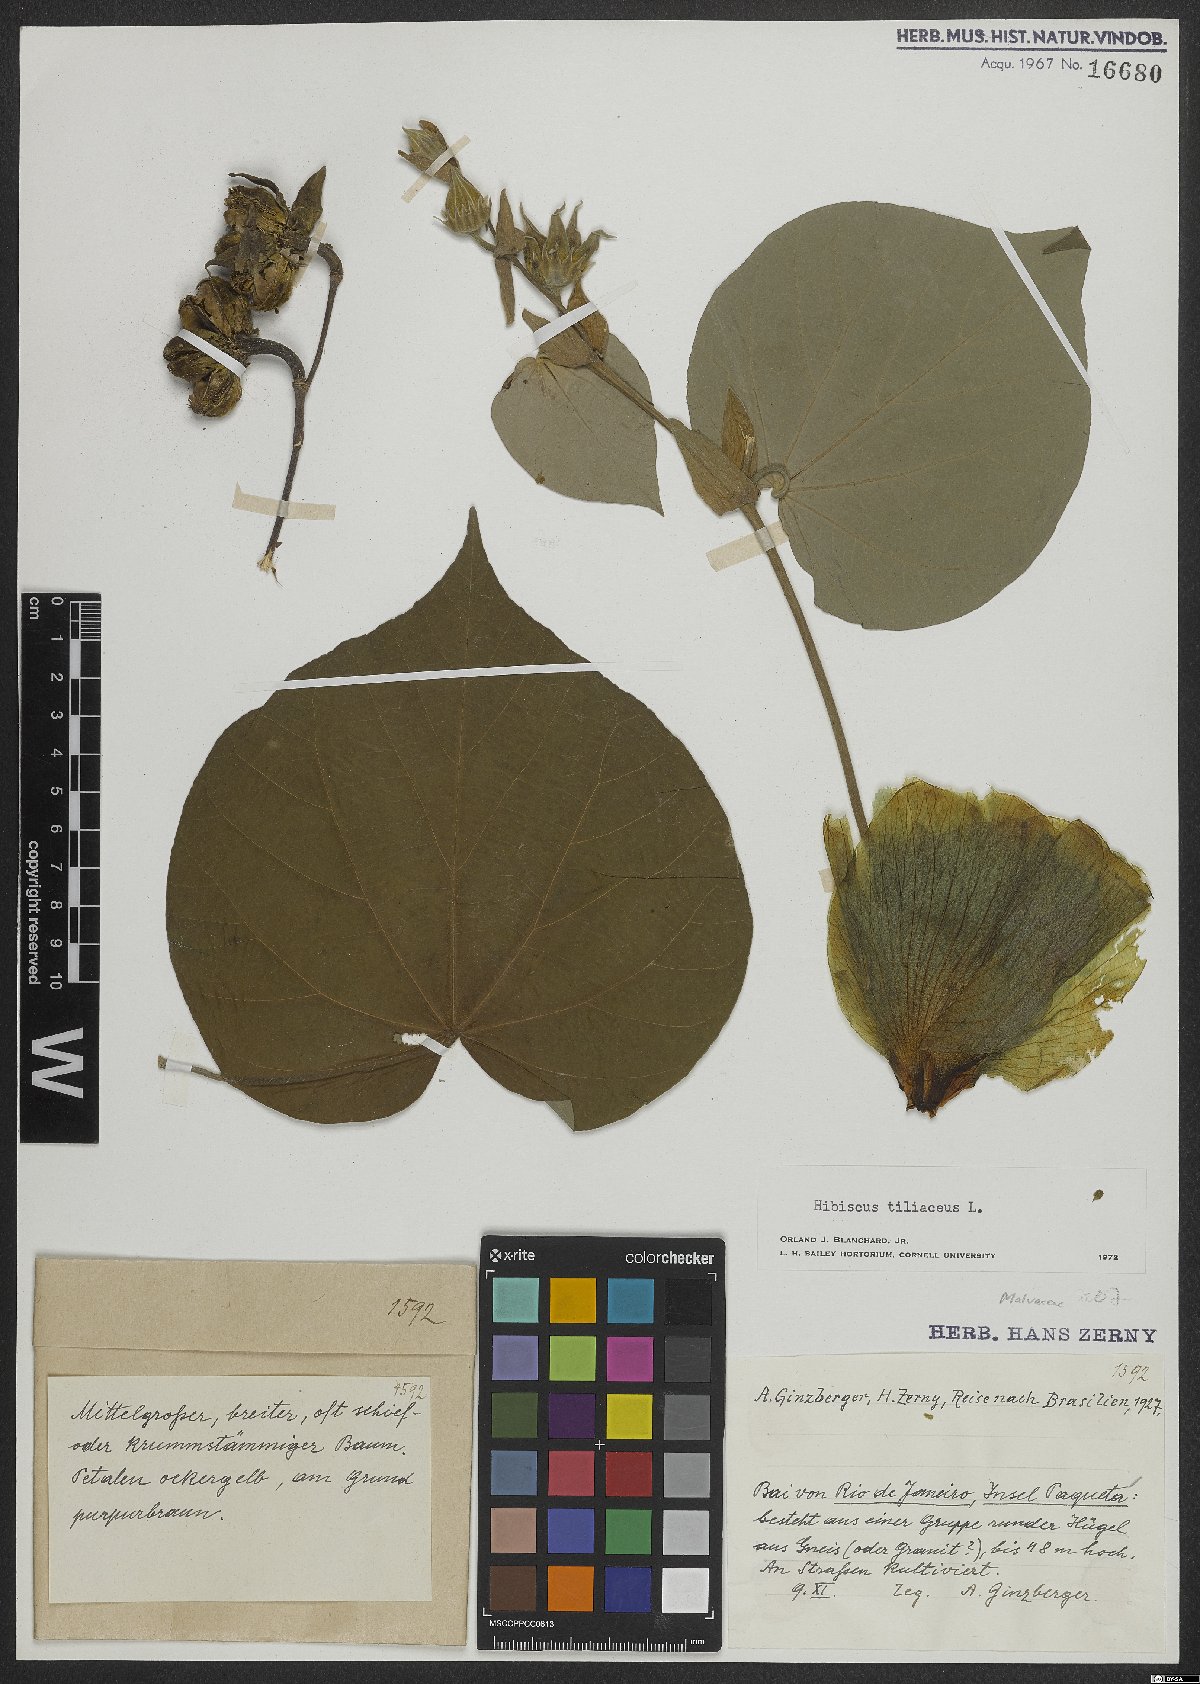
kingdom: Plantae
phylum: Tracheophyta
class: Magnoliopsida
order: Malvales
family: Malvaceae
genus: Talipariti
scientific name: Talipariti tiliaceum
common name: Sea hibiscus
